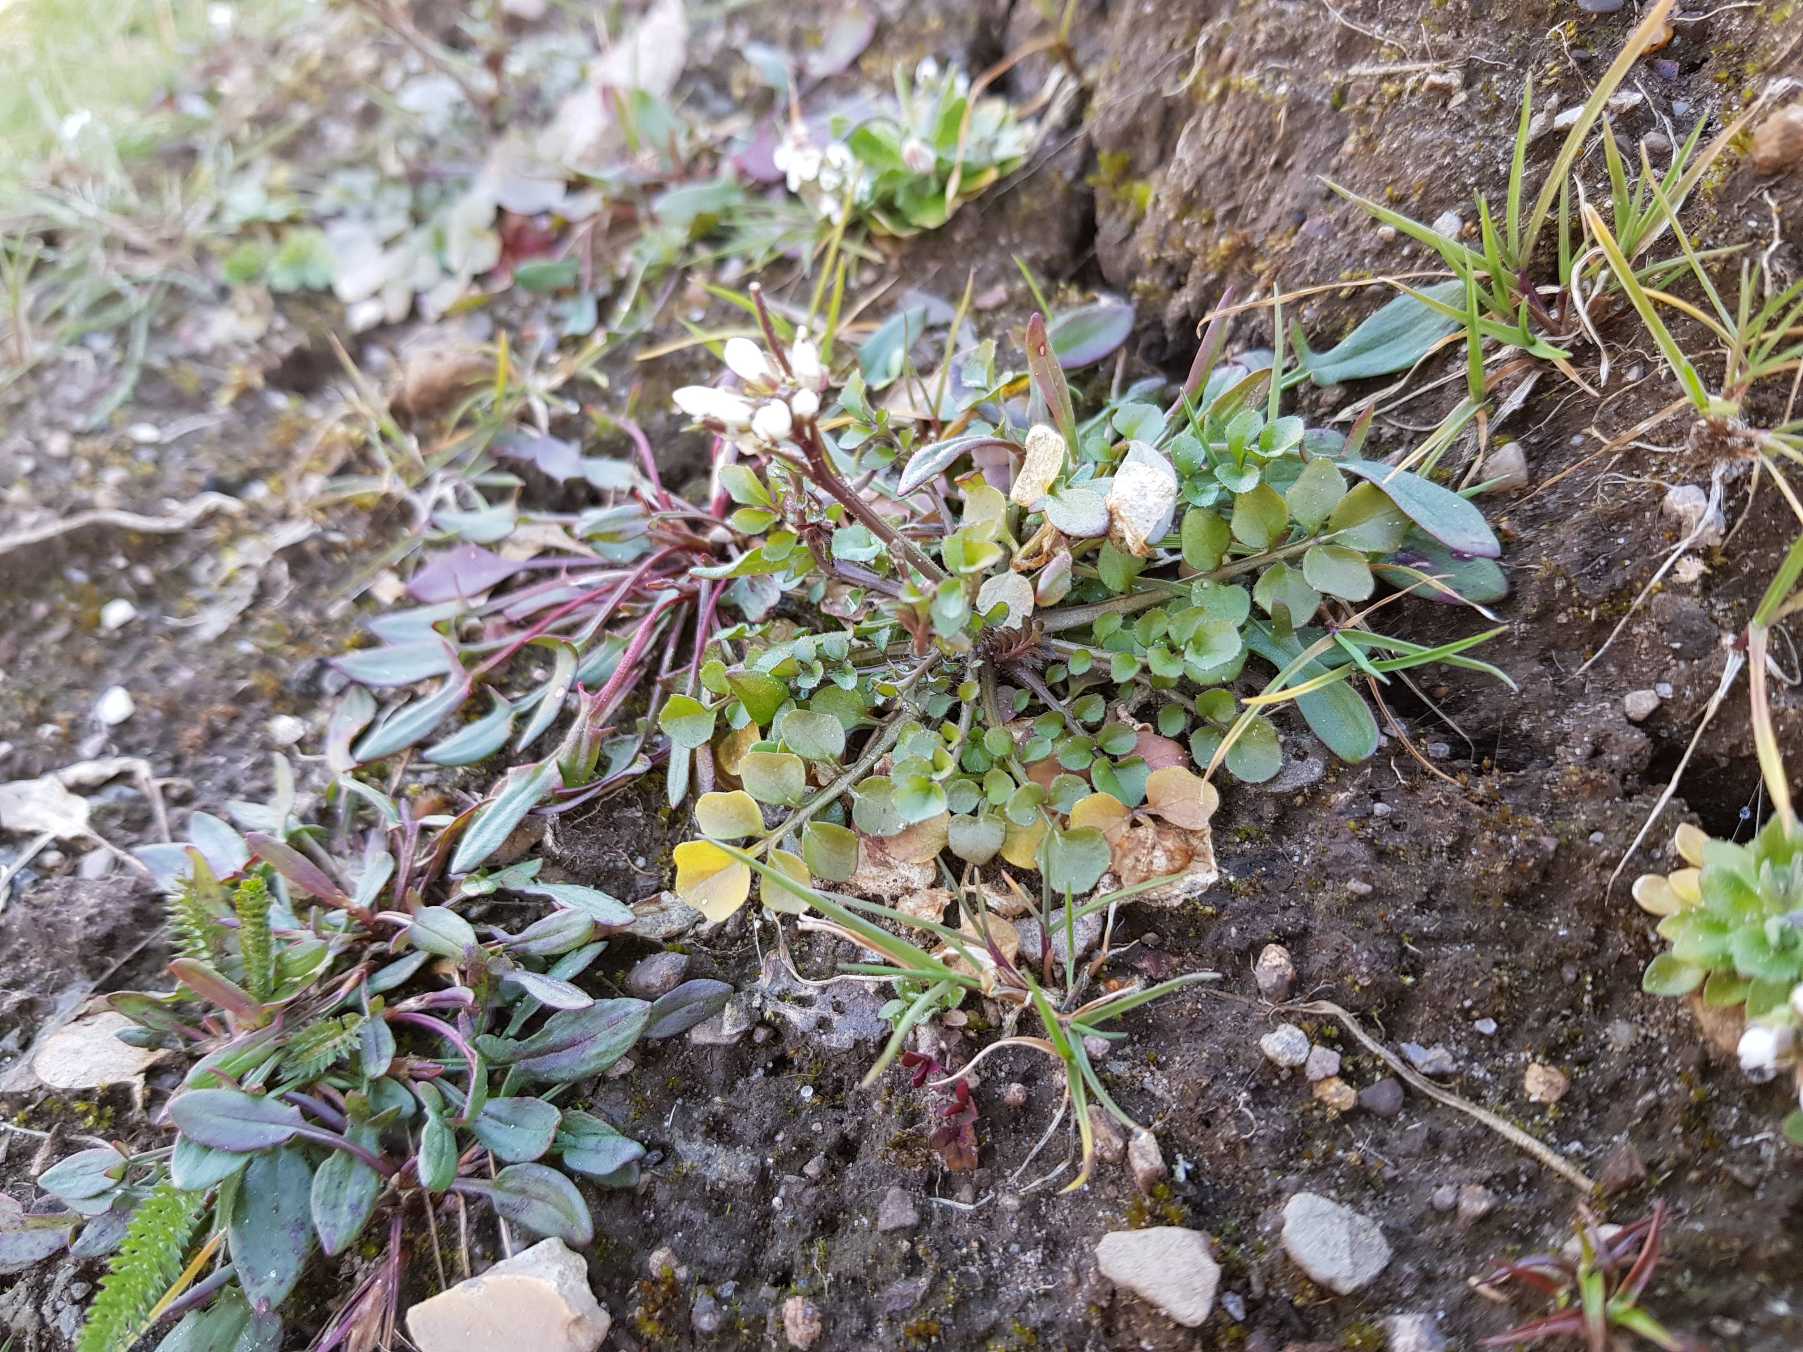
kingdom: Plantae
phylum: Tracheophyta
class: Magnoliopsida
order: Brassicales
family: Brassicaceae
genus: Cardamine
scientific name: Cardamine hirsuta
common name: Roset-springklap
